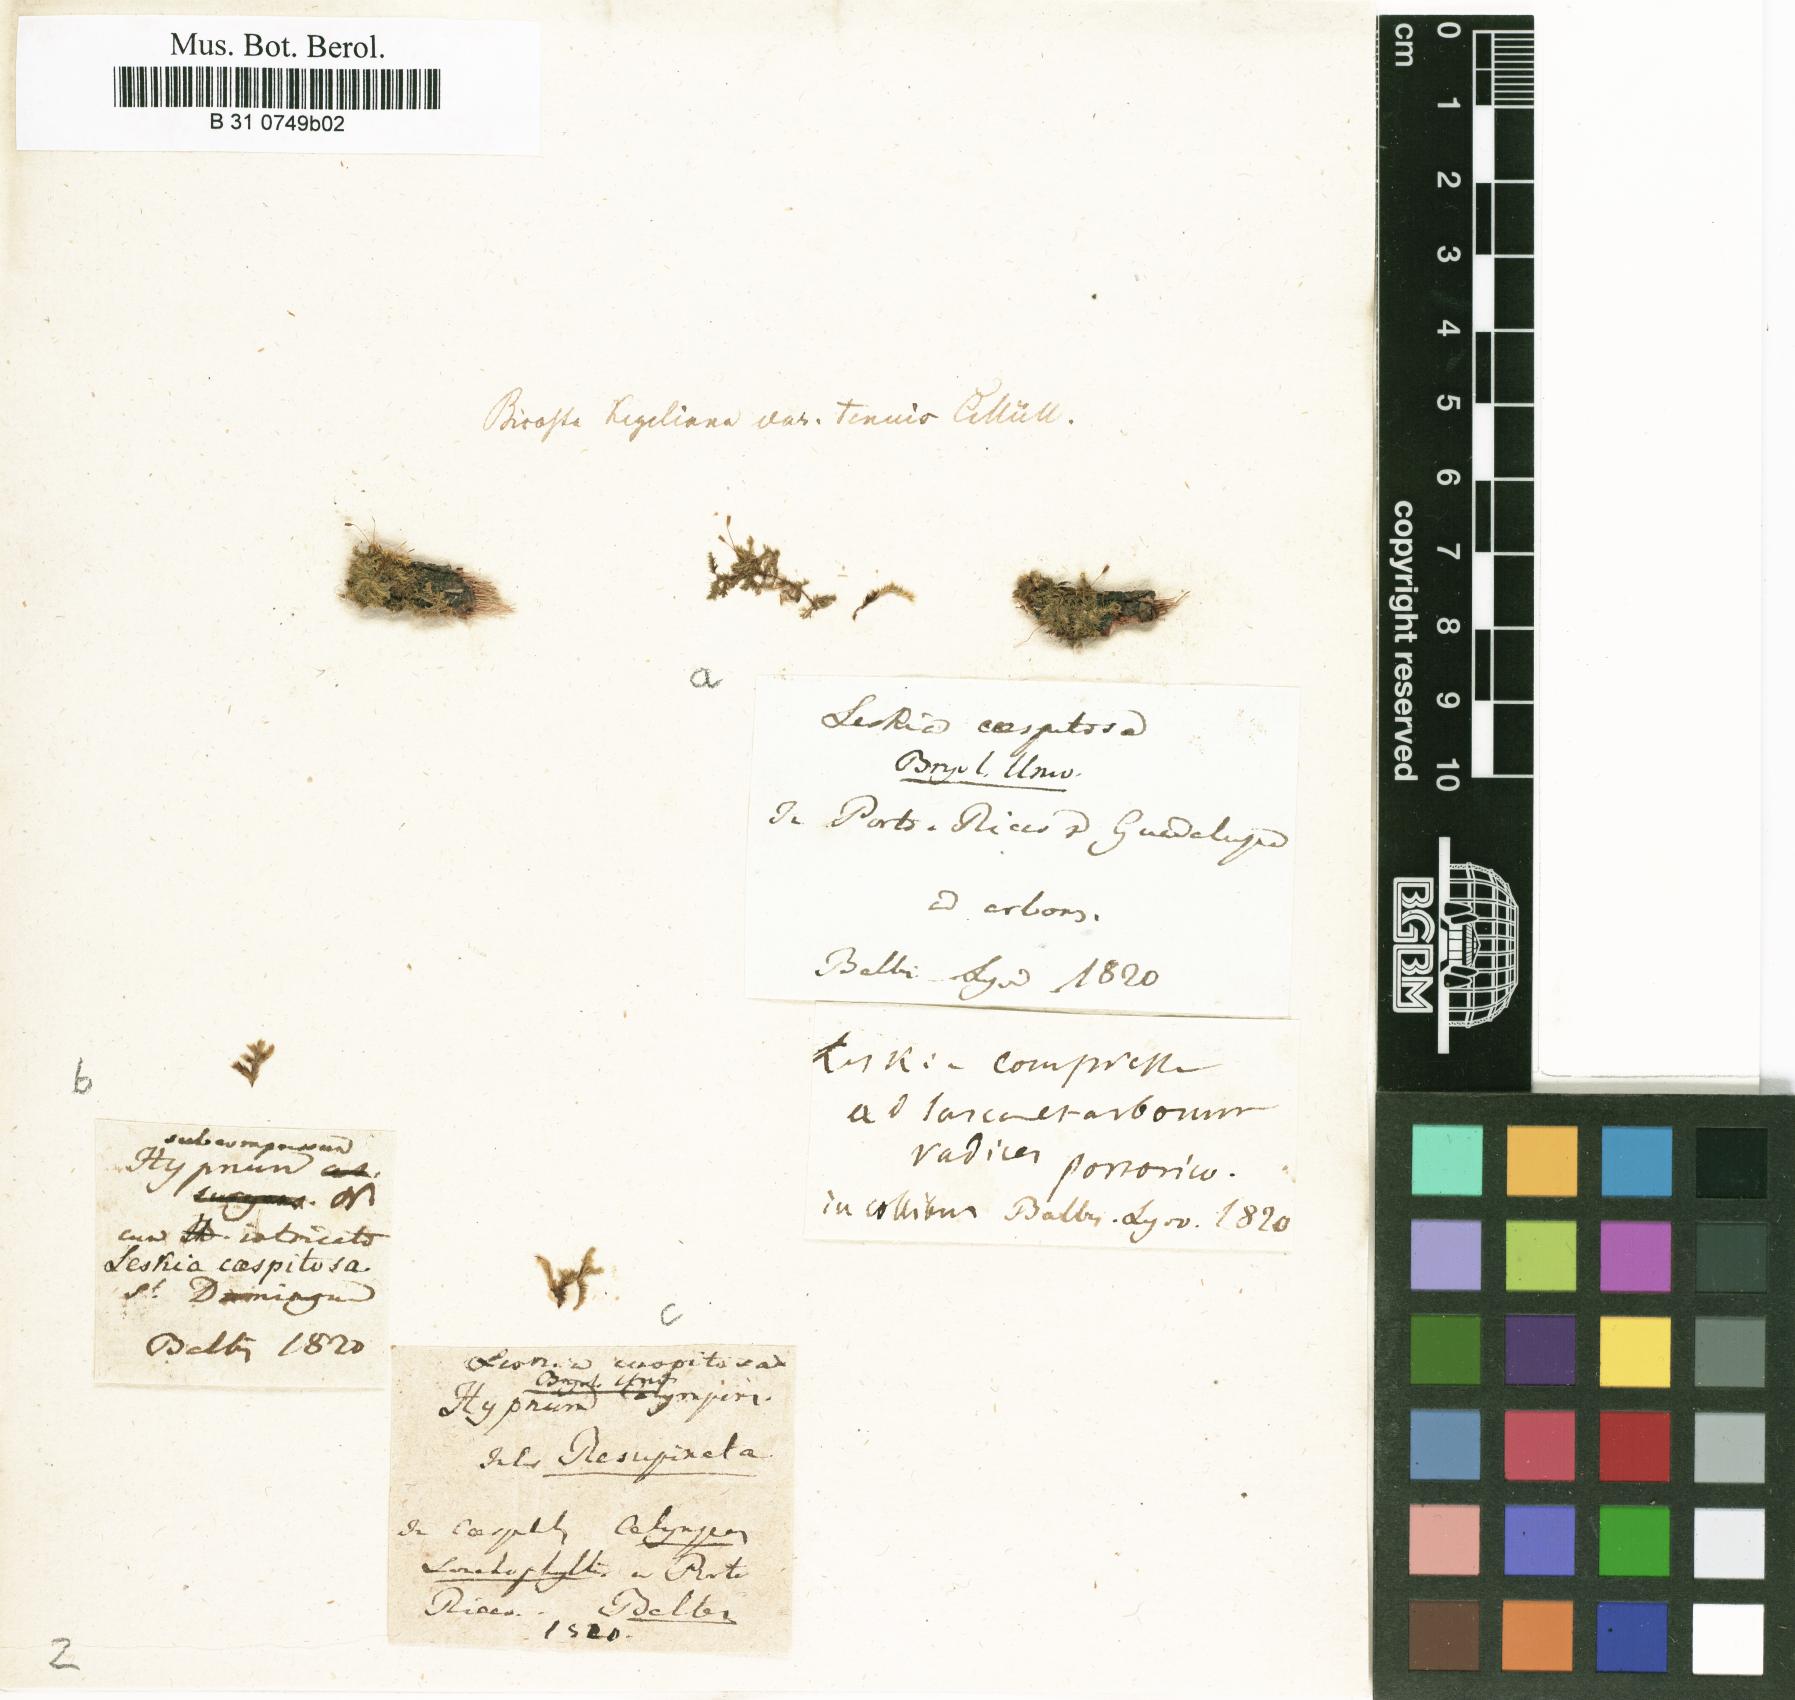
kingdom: Plantae
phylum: Bryophyta
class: Bryopsida
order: Hypnales
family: Sematophyllaceae
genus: Jirivanaea
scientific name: Jirivanaea caespitosa
